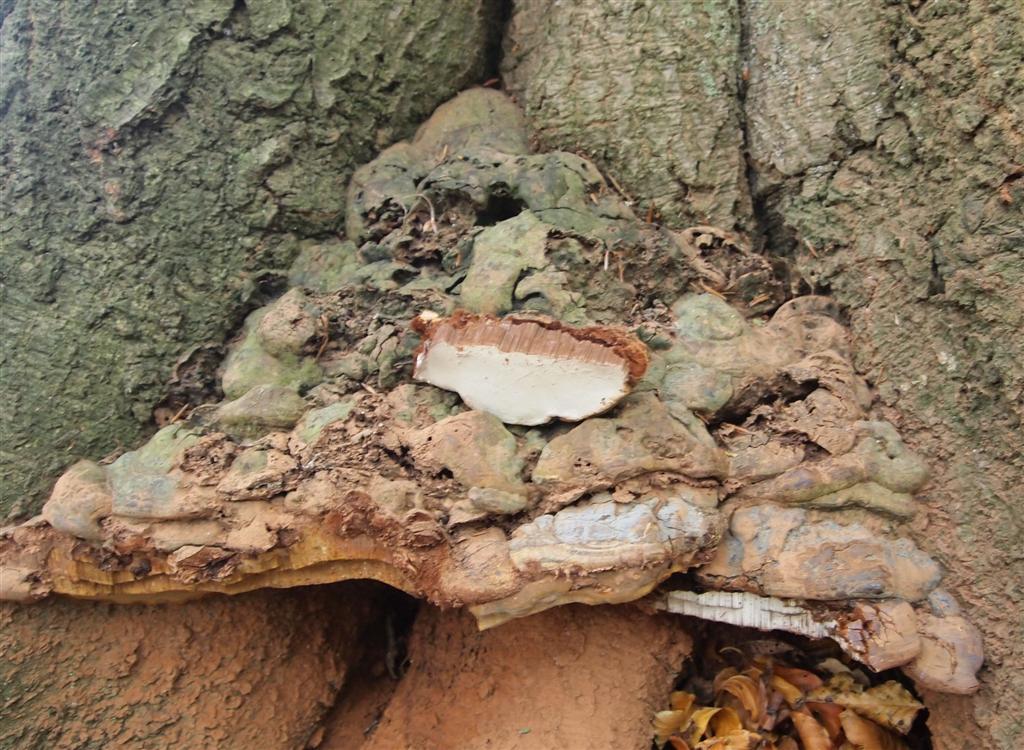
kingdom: Fungi
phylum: Basidiomycota
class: Agaricomycetes
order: Polyporales
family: Polyporaceae
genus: Ganoderma
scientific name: Ganoderma pfeifferi
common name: kobberrød lakporesvamp
